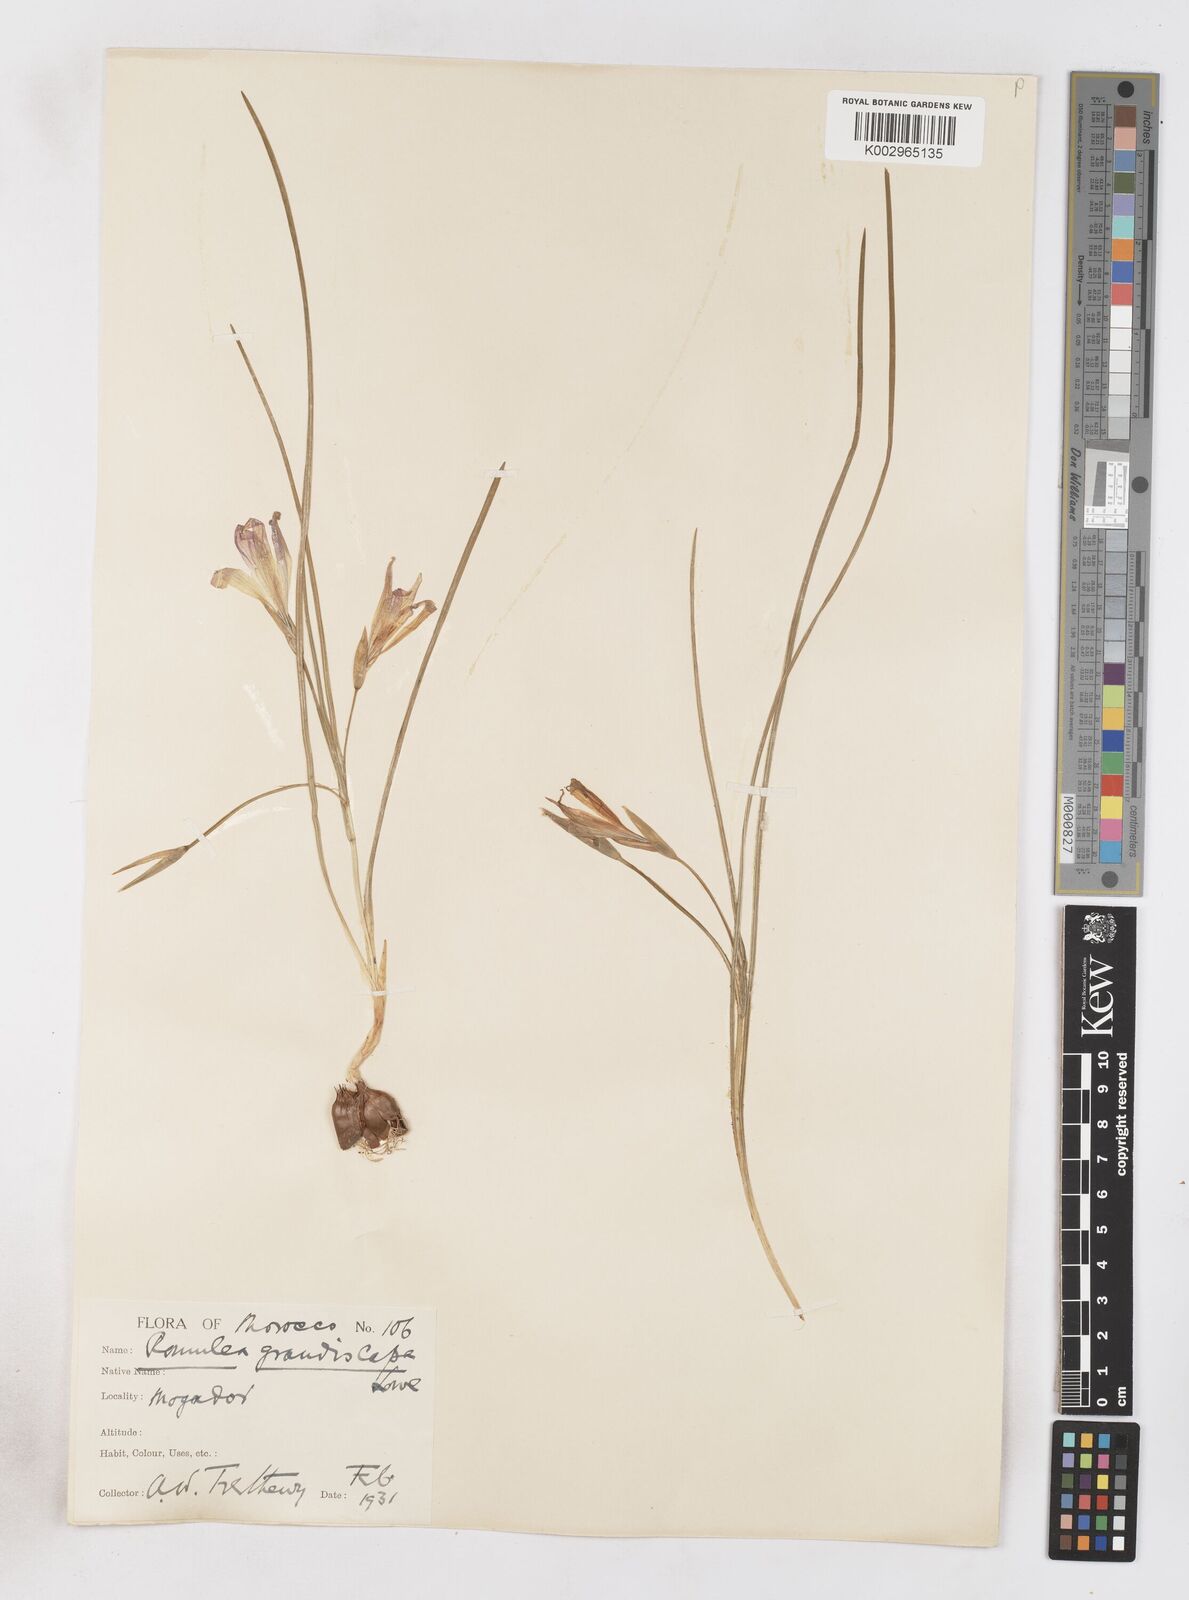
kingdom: Plantae
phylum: Tracheophyta
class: Liliopsida
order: Asparagales
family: Iridaceae
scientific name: Iridaceae
